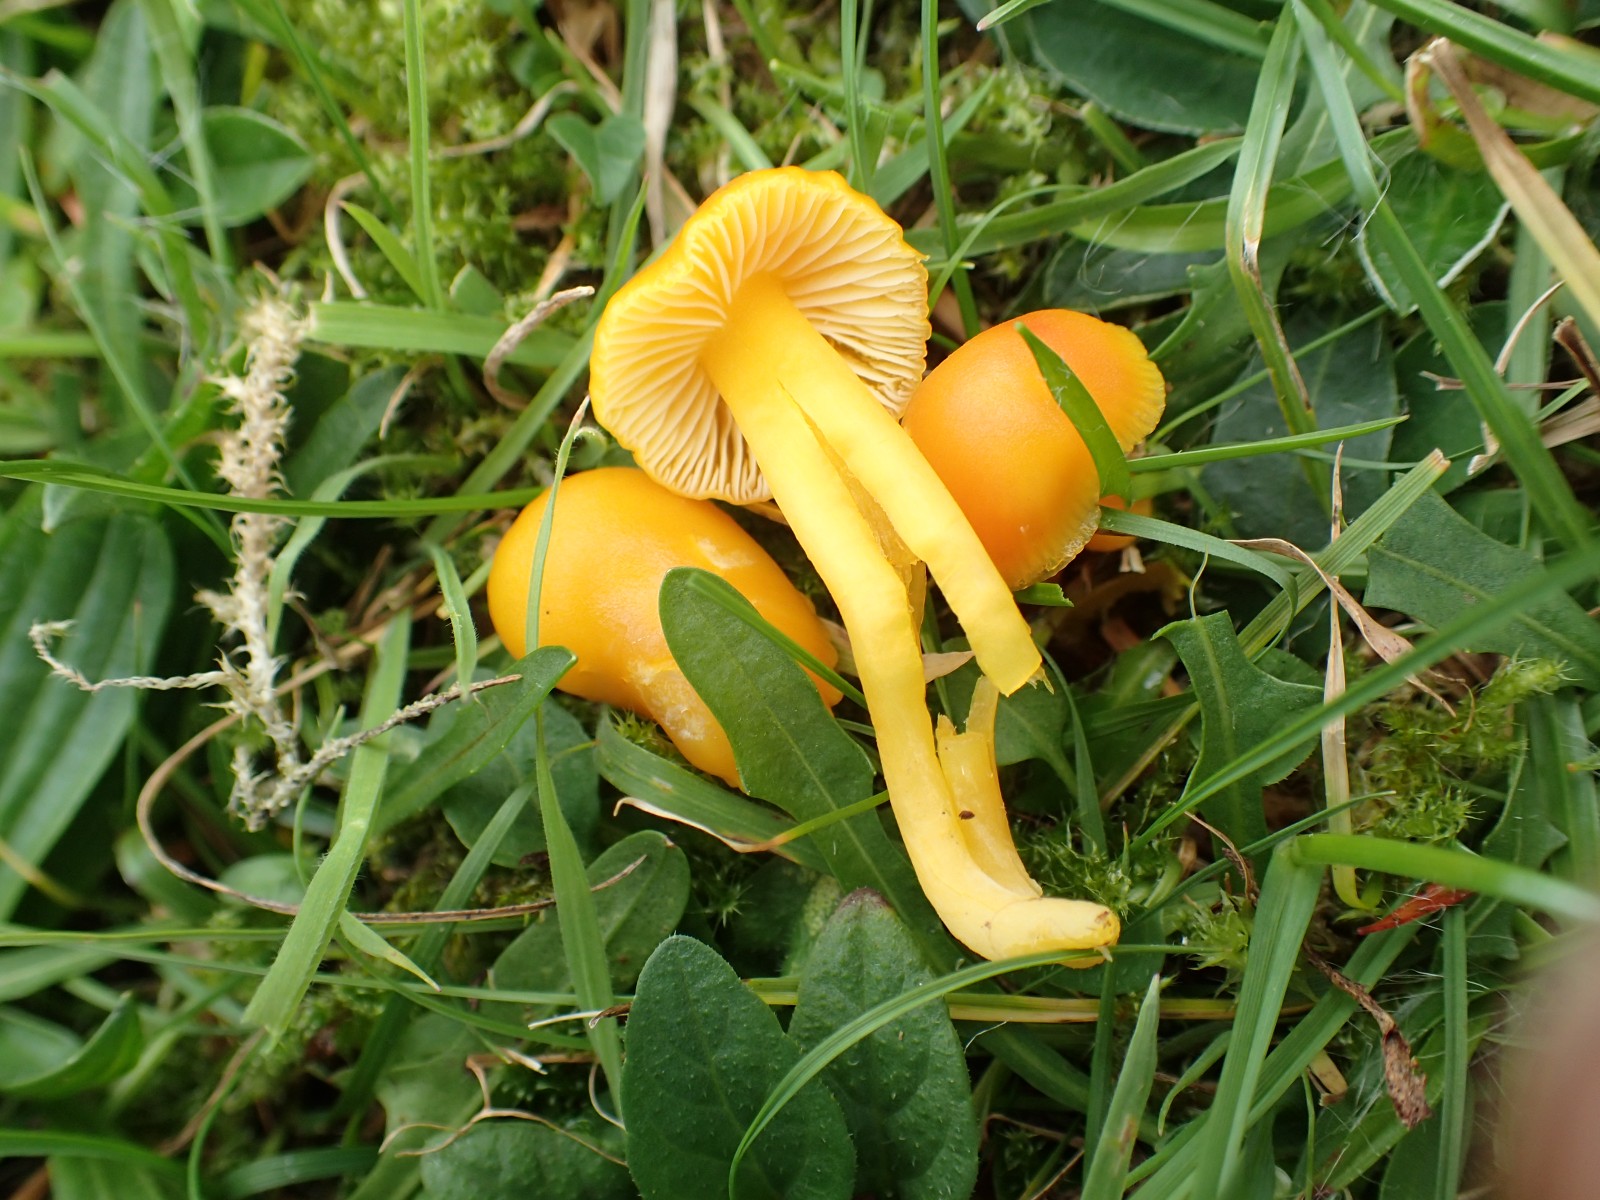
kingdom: Fungi
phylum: Basidiomycota
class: Agaricomycetes
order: Agaricales
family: Hygrophoraceae
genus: Hygrocybe
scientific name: Hygrocybe ceracea
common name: voksgul vokshat
